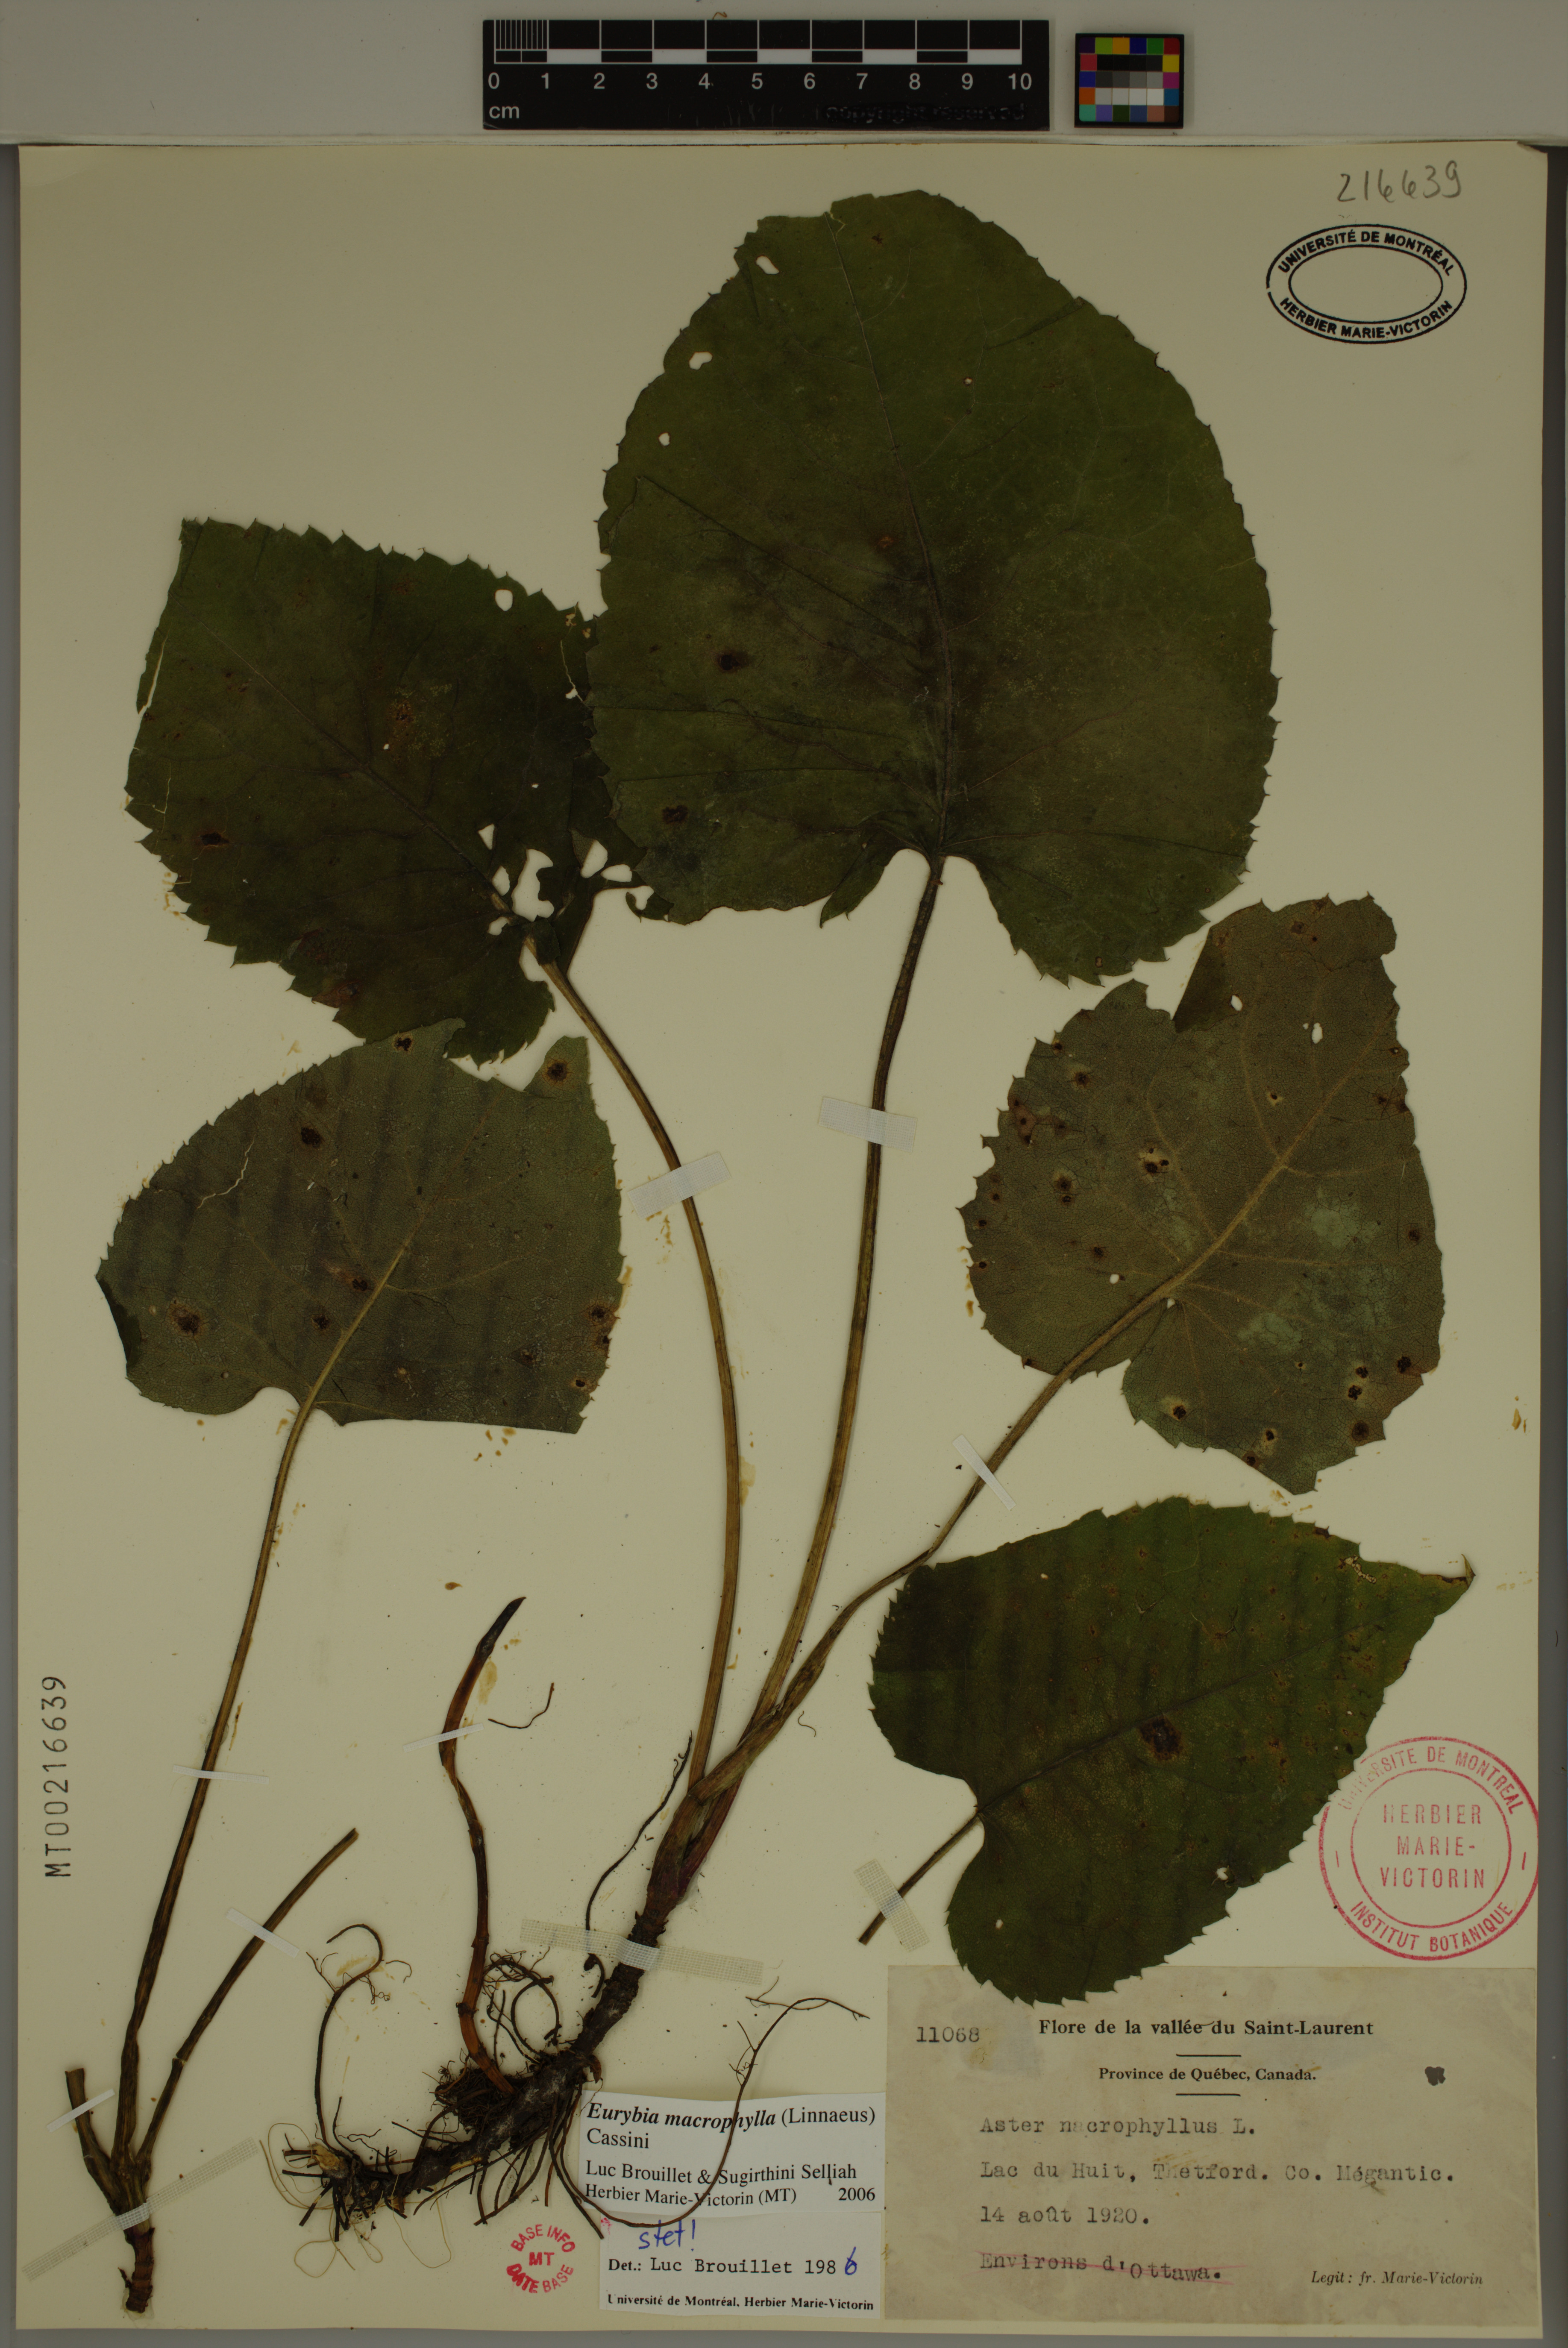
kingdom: Plantae
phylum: Tracheophyta
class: Magnoliopsida
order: Asterales
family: Asteraceae
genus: Eurybia
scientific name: Eurybia macrophylla
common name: Big-leaved aster
